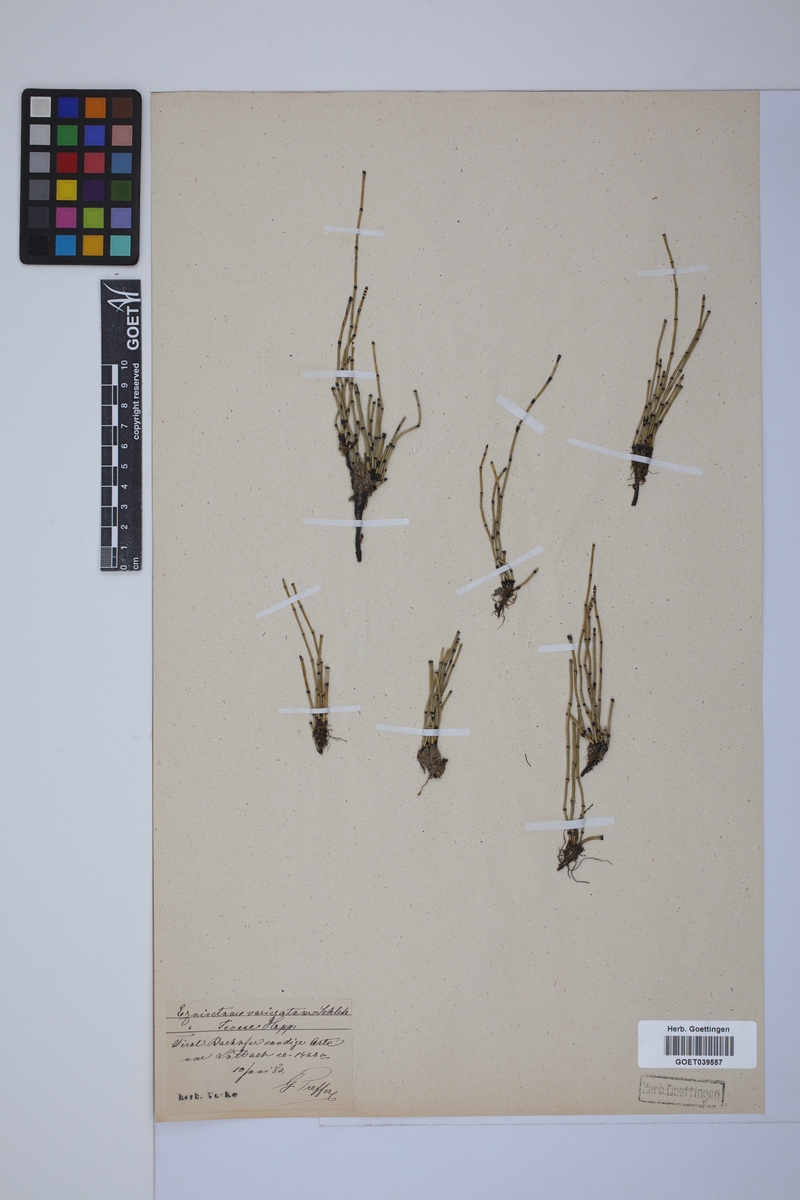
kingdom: Plantae
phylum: Tracheophyta
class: Polypodiopsida
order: Equisetales
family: Equisetaceae
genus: Equisetum
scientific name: Equisetum variegatum
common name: Variegated horsetail
